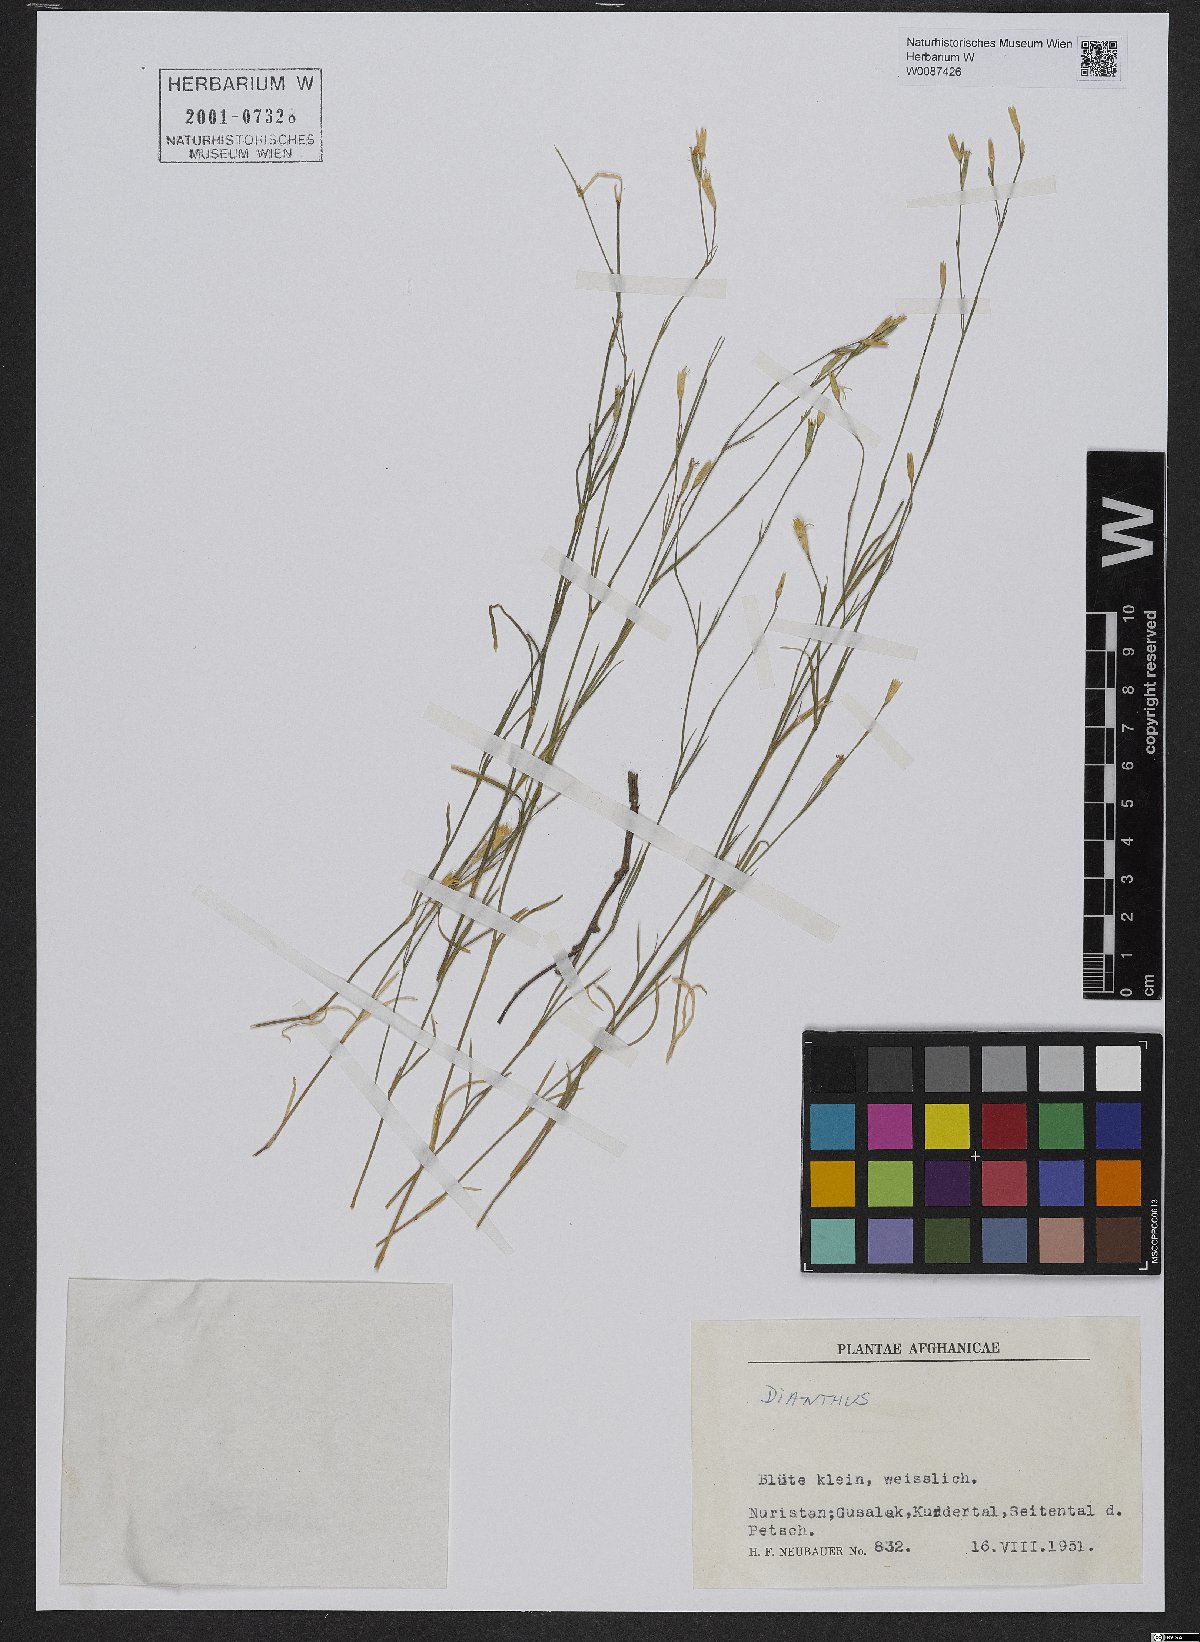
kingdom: Plantae
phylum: Tracheophyta
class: Magnoliopsida
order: Caryophyllales
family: Caryophyllaceae
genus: Dianthus
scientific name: Dianthus
